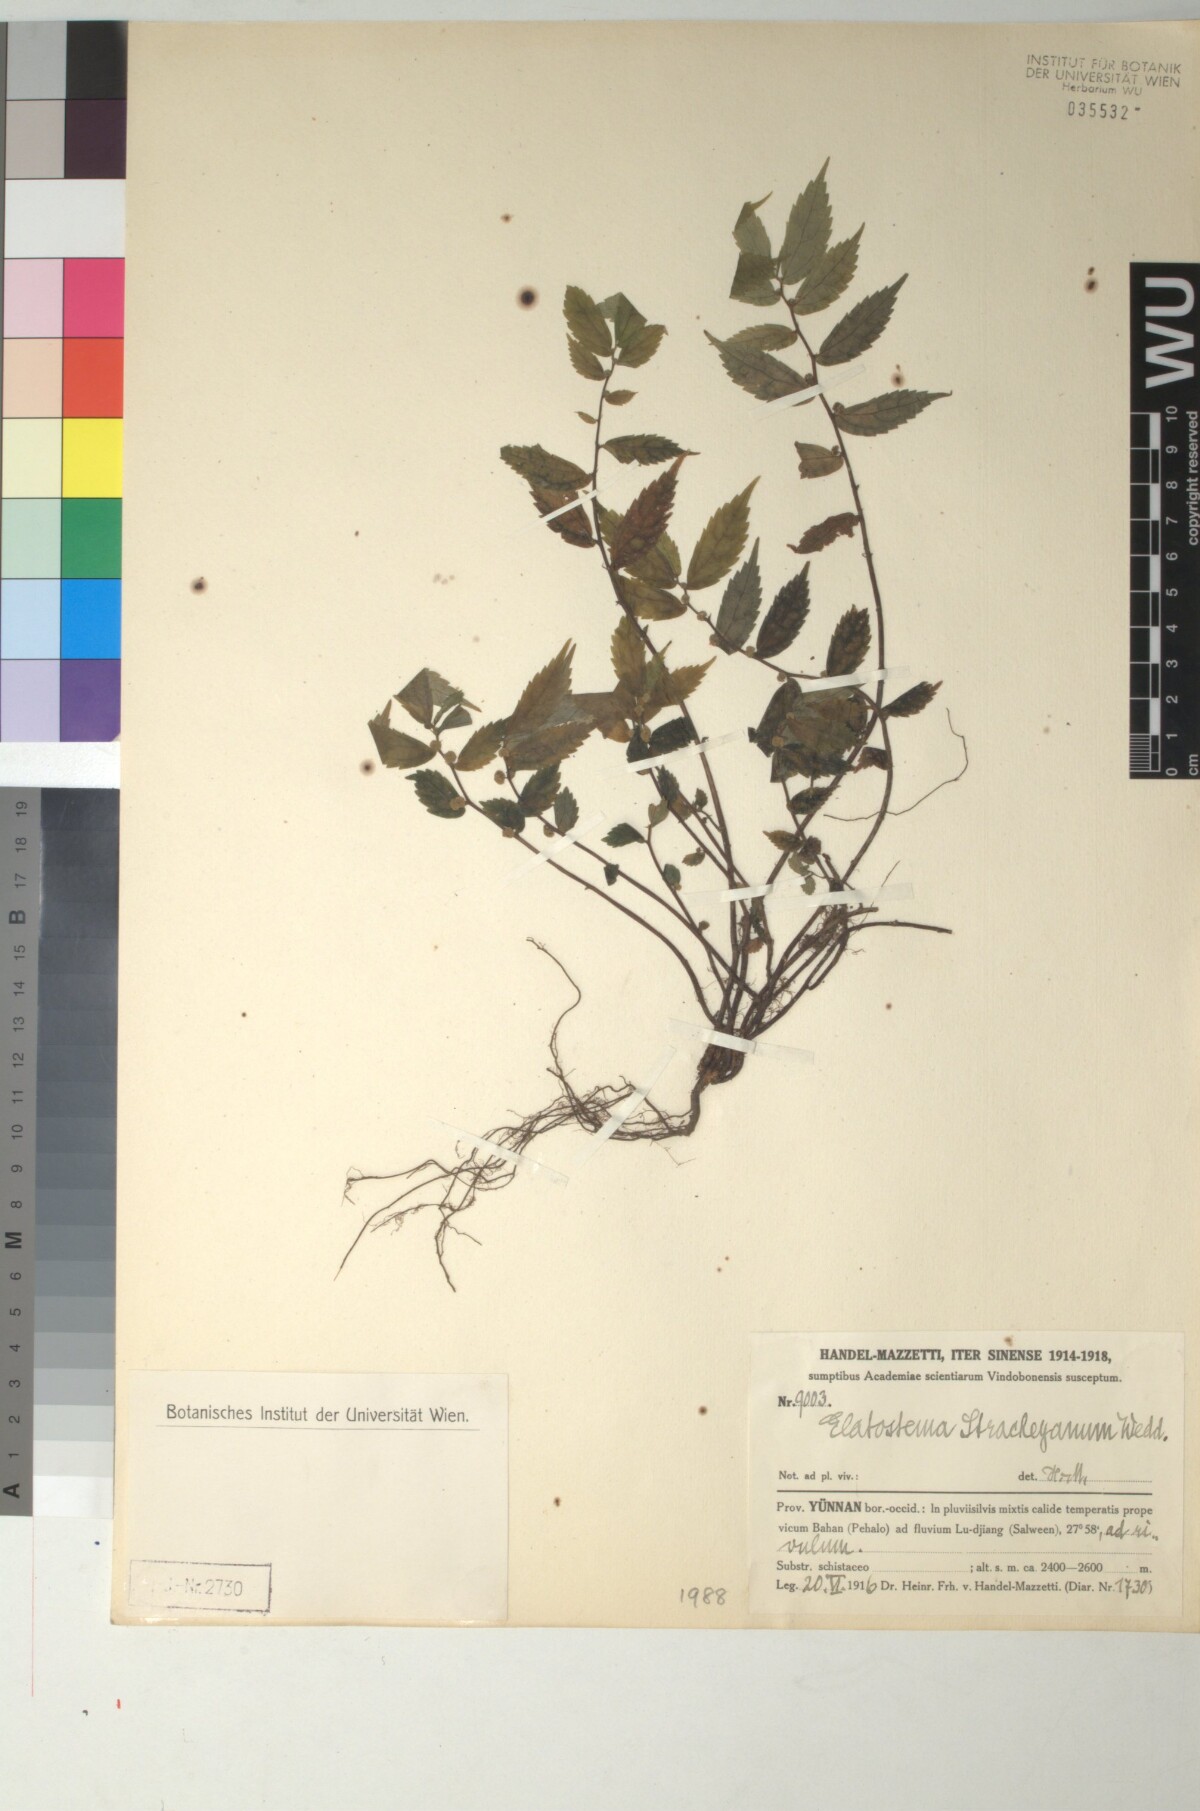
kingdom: Plantae
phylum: Tracheophyta
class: Magnoliopsida
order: Rosales
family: Urticaceae
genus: Elatostema
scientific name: Elatostema parvum
